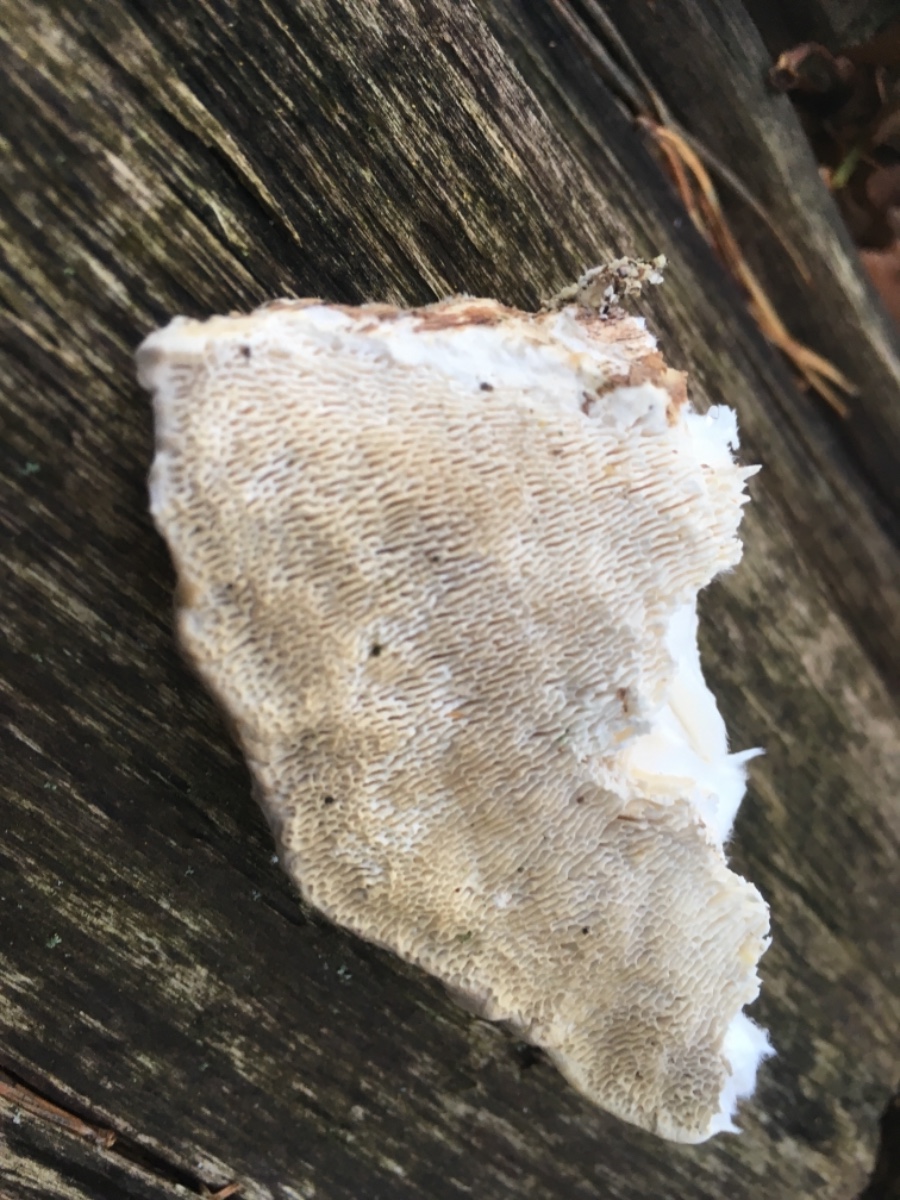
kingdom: Fungi
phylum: Basidiomycota
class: Agaricomycetes
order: Polyporales
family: Polyporaceae
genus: Trametes
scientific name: Trametes gibbosa
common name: puklet læderporesvamp
